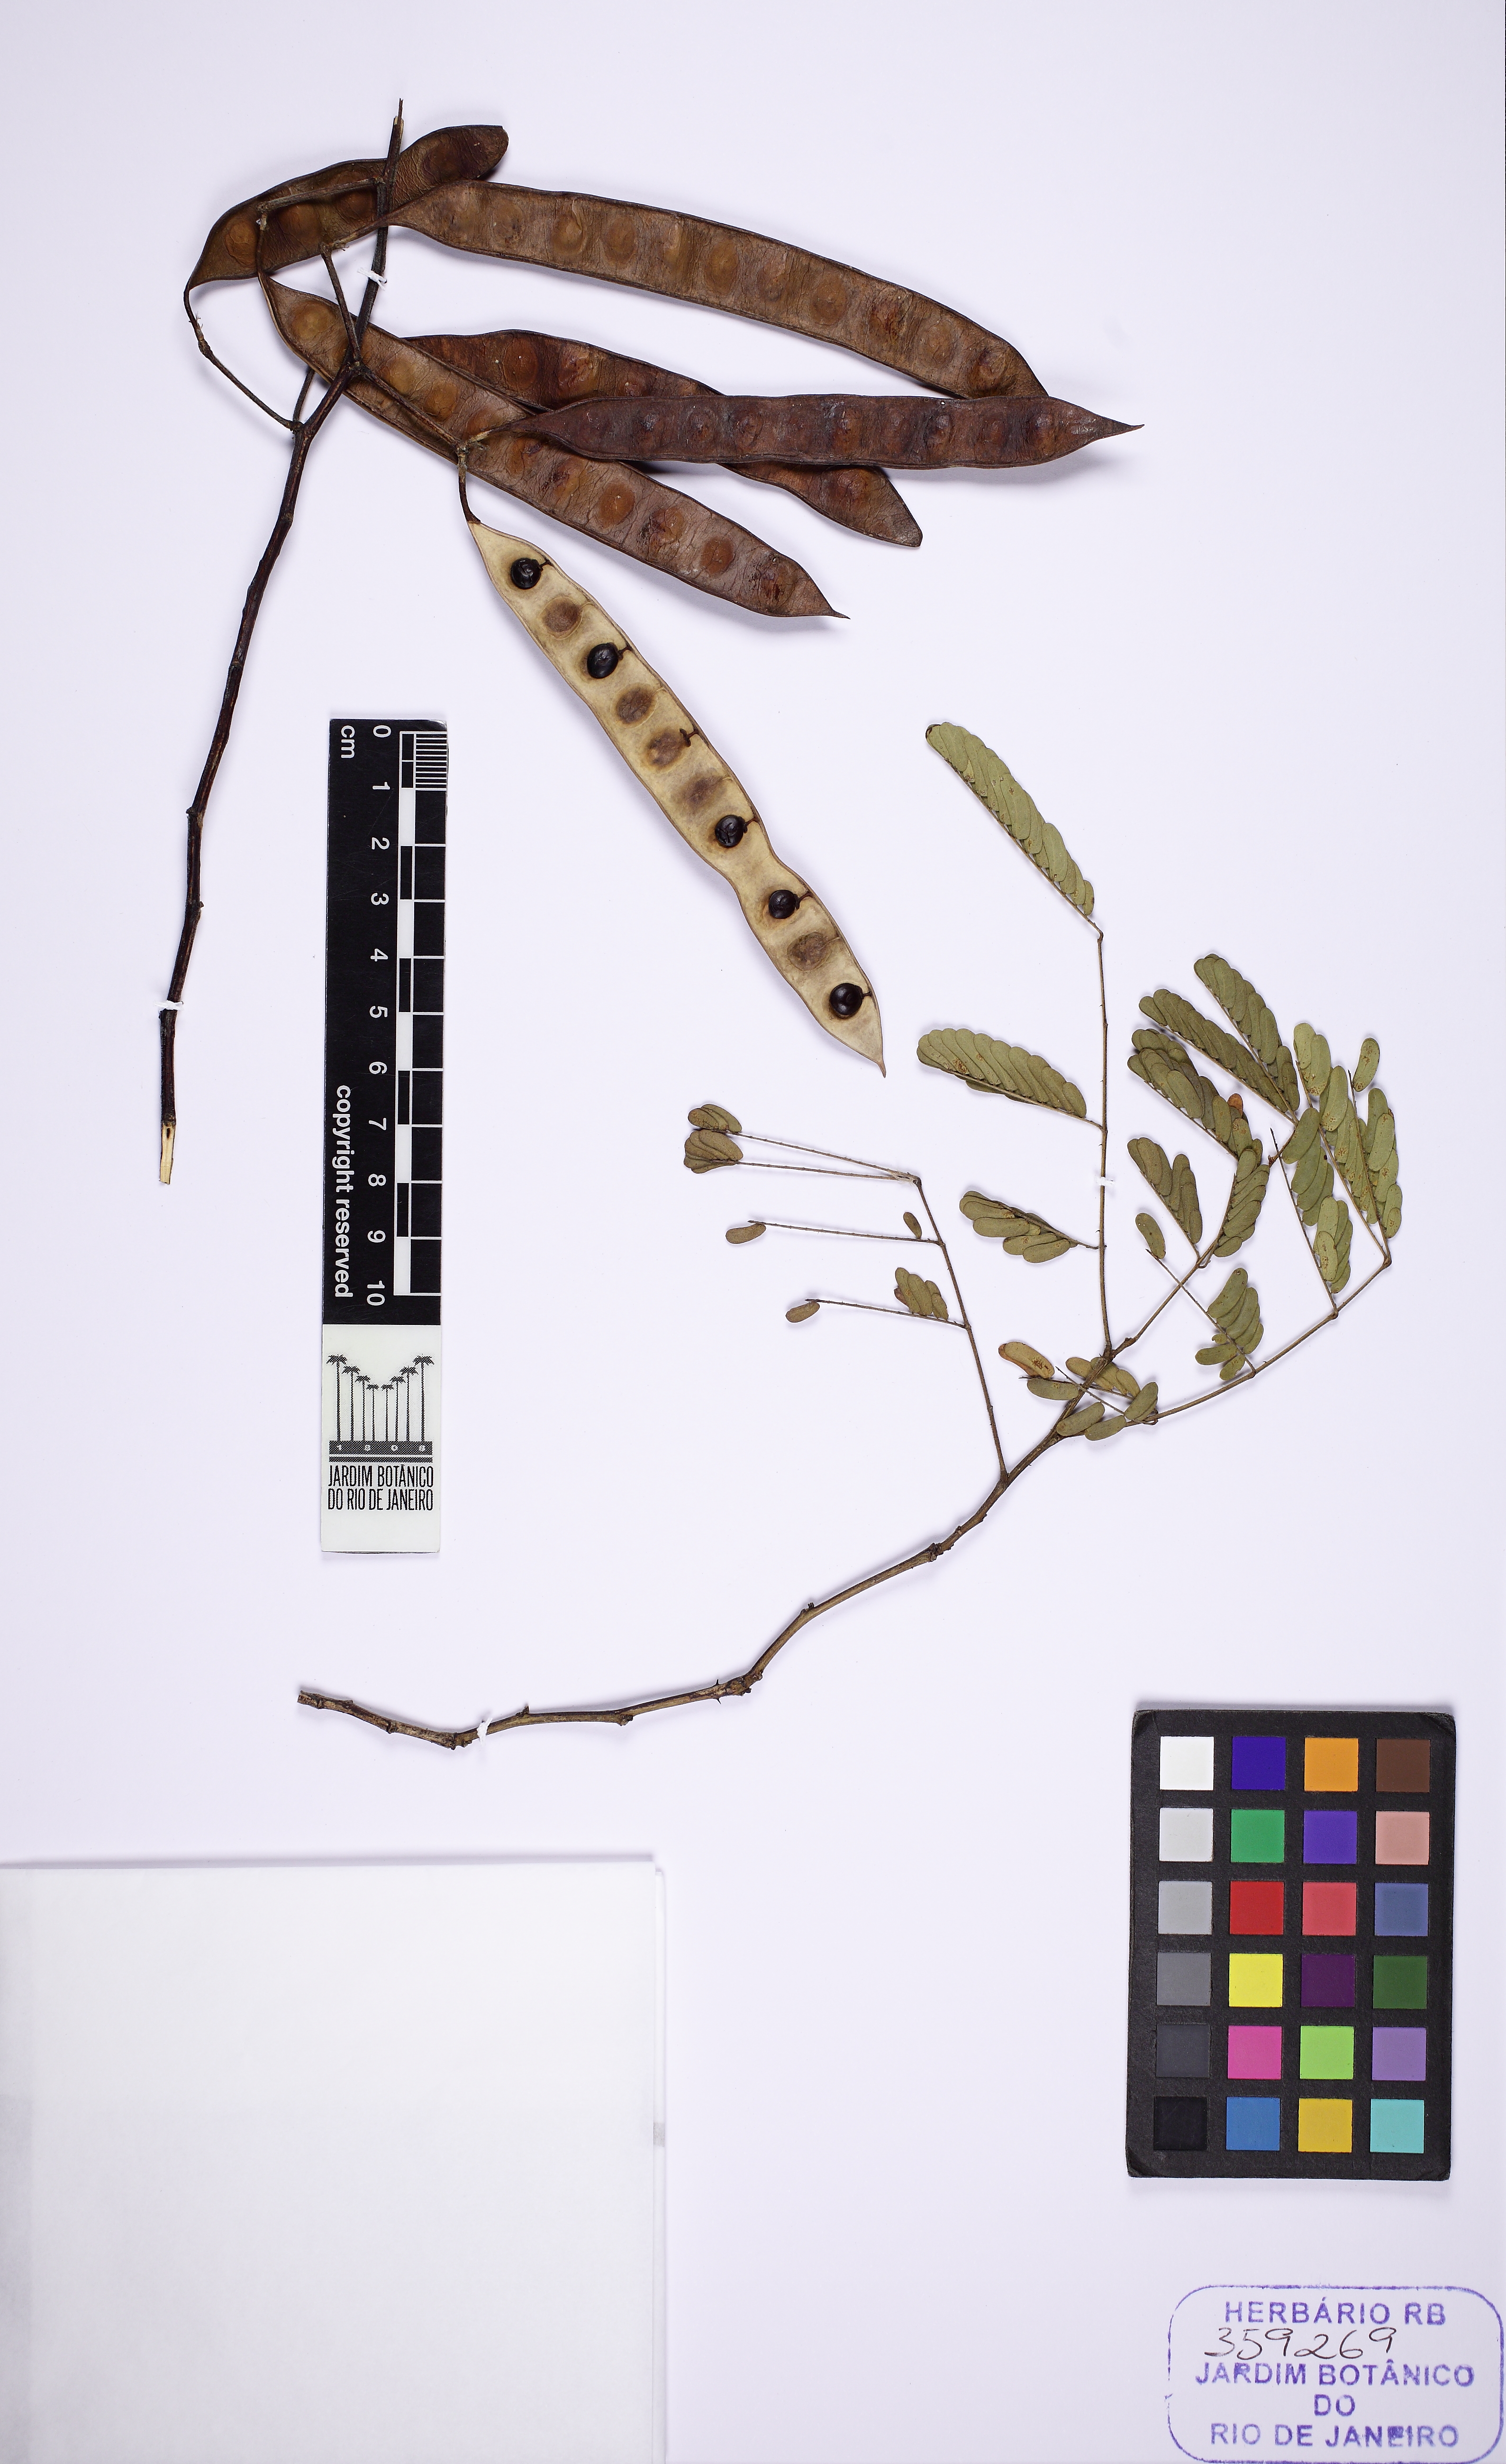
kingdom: Plantae
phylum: Tracheophyta
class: Magnoliopsida
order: Fabales
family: Fabaceae
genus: Senegalia
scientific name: Senegalia bahiensis
